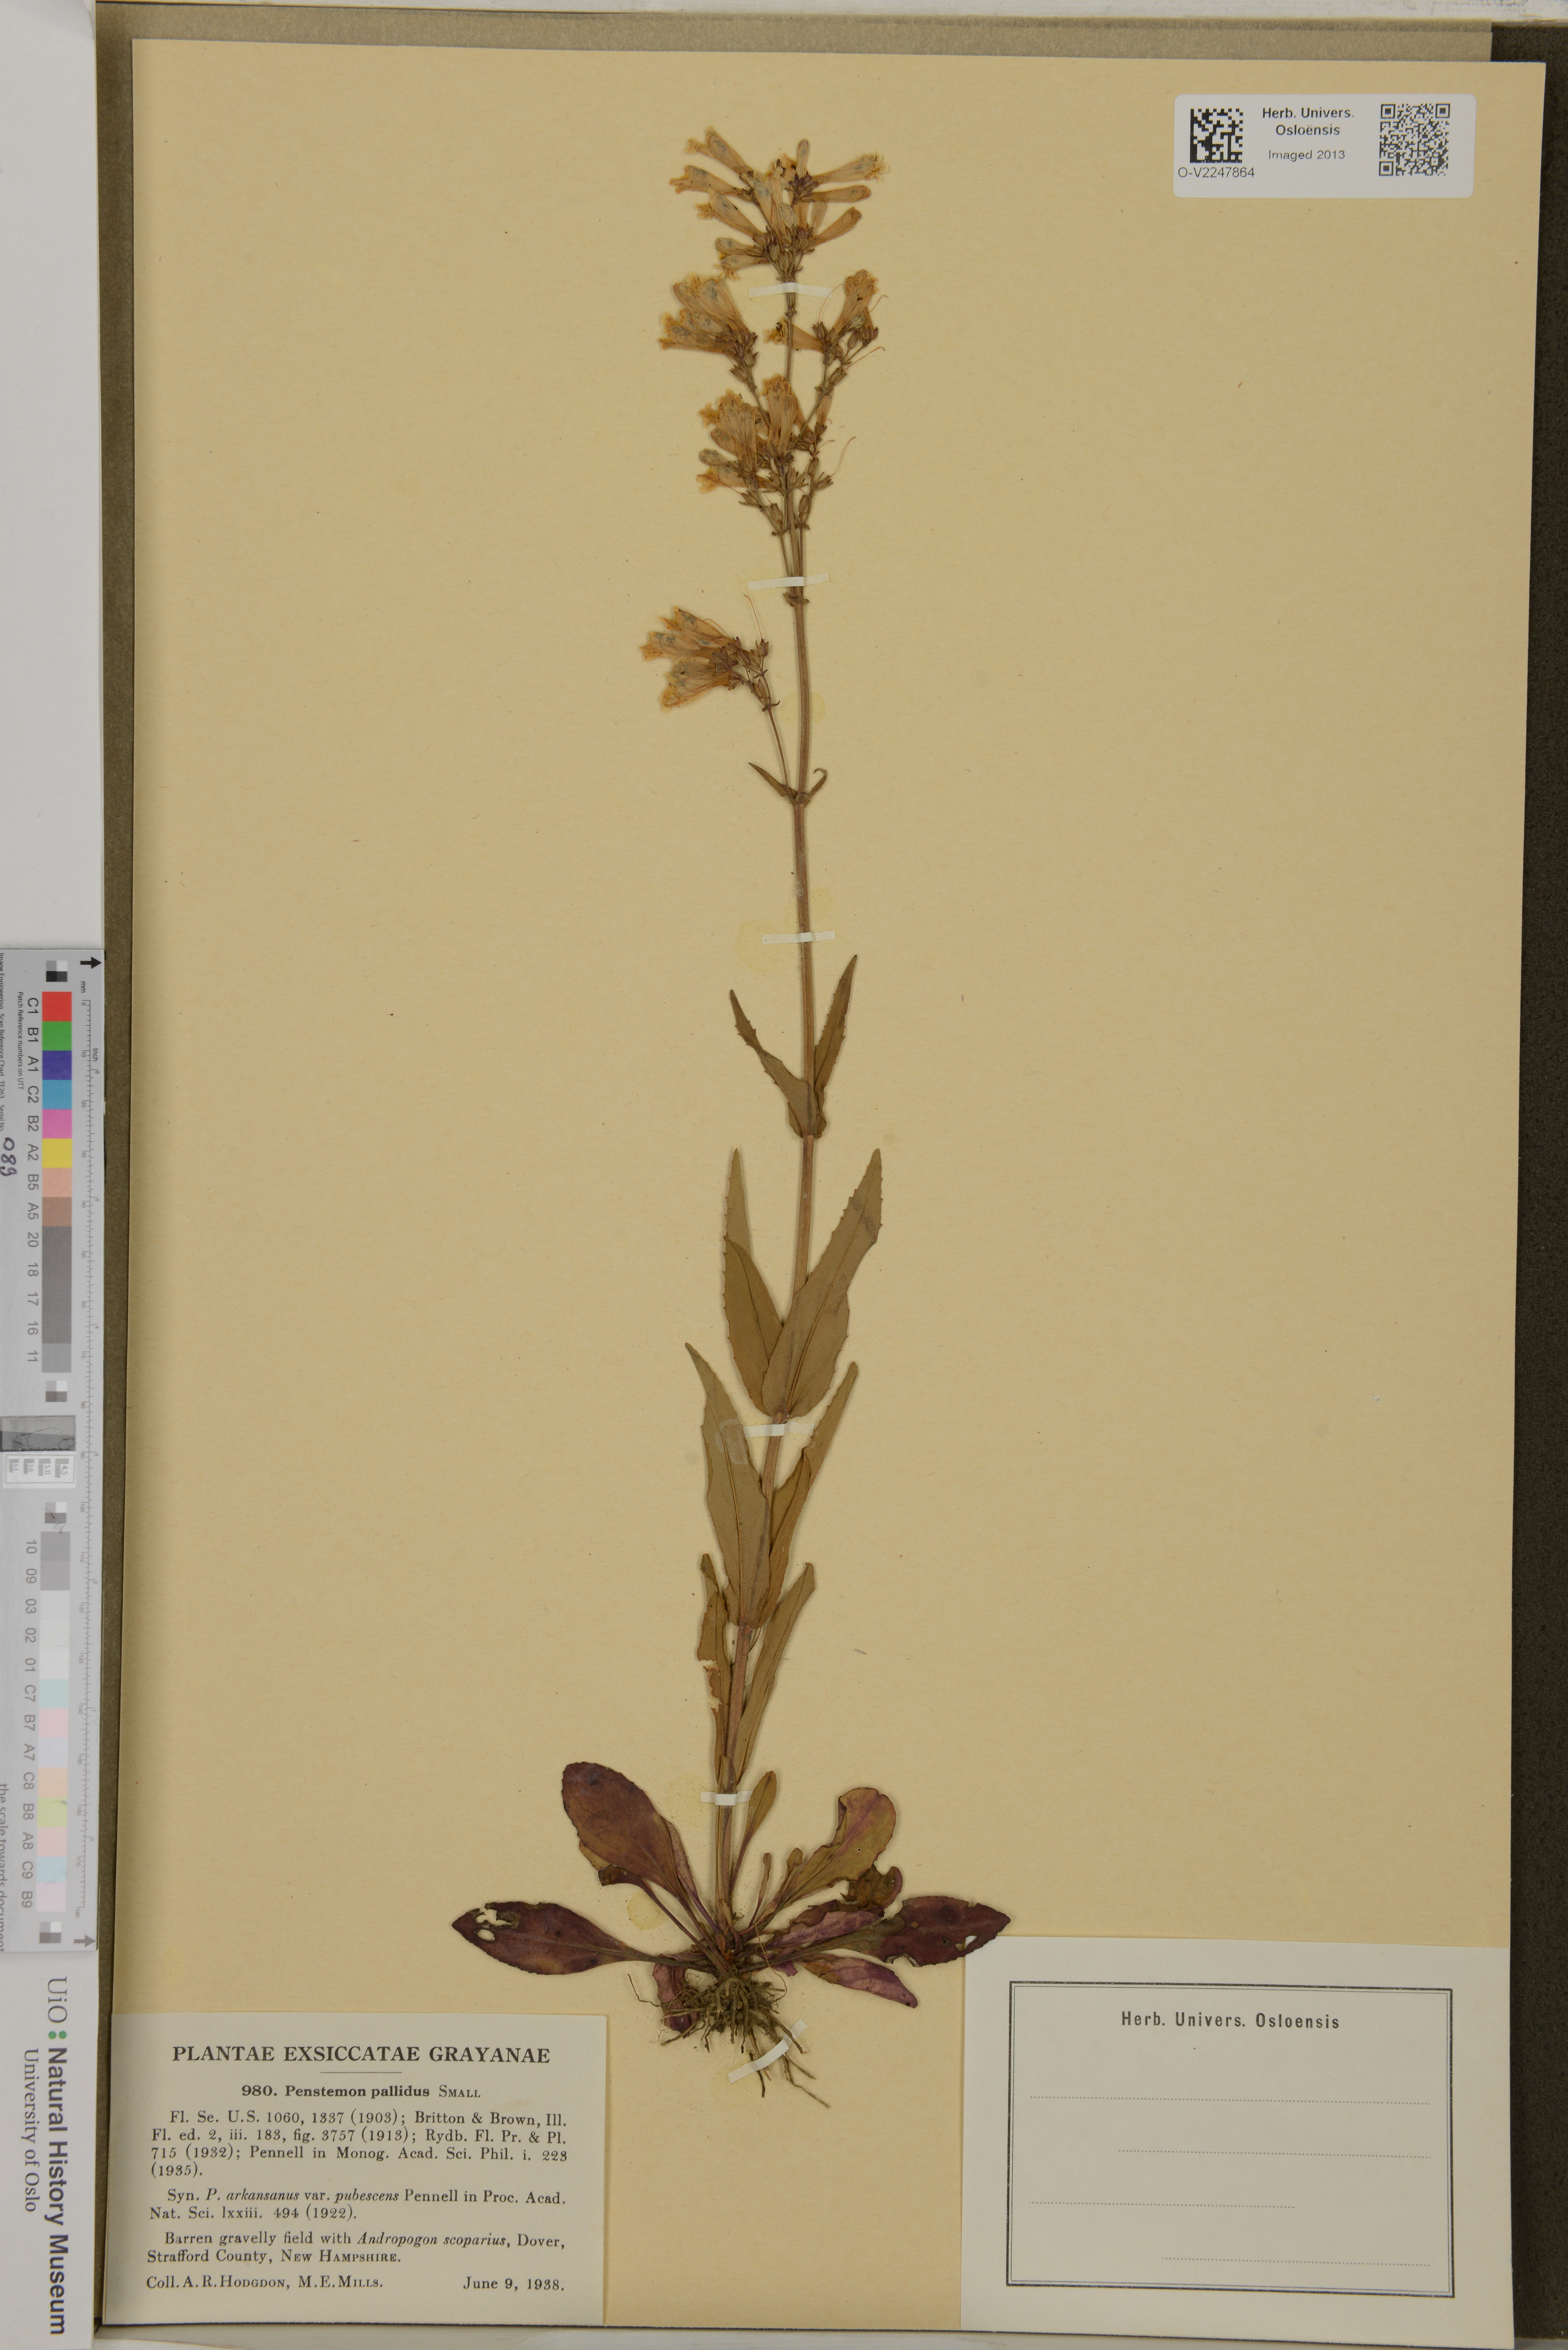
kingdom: Plantae
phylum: Tracheophyta
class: Magnoliopsida
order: Lamiales
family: Plantaginaceae
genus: Penstemon
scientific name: Penstemon pallidus
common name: Pale beardtongue
